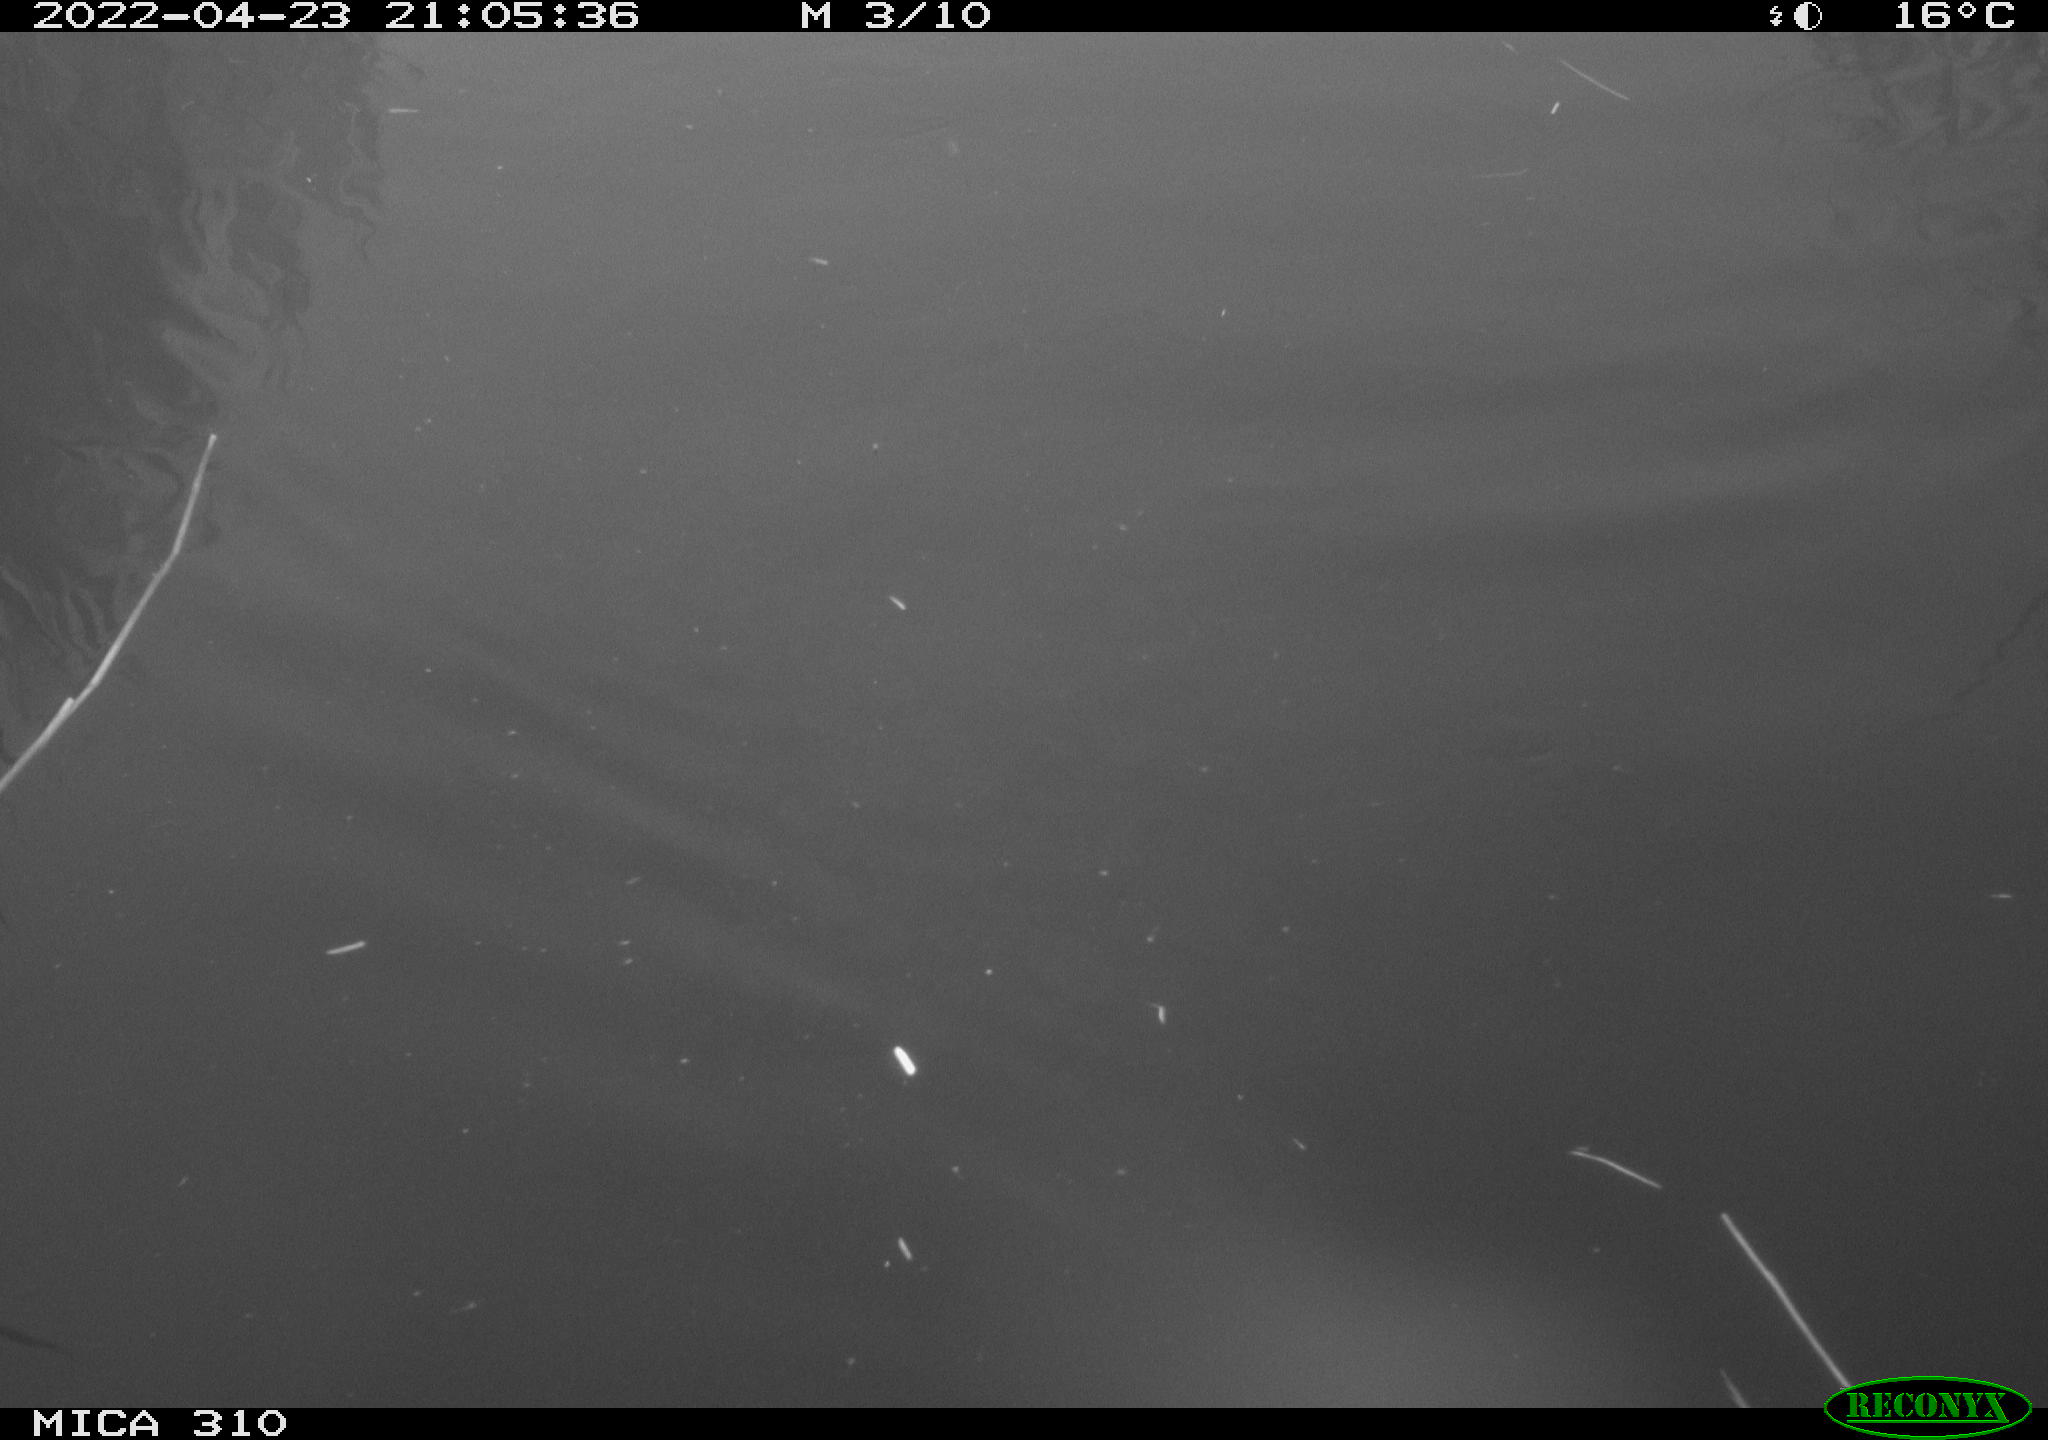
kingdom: Animalia
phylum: Chordata
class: Aves
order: Anseriformes
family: Anatidae
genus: Anas
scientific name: Anas platyrhynchos
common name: Mallard
